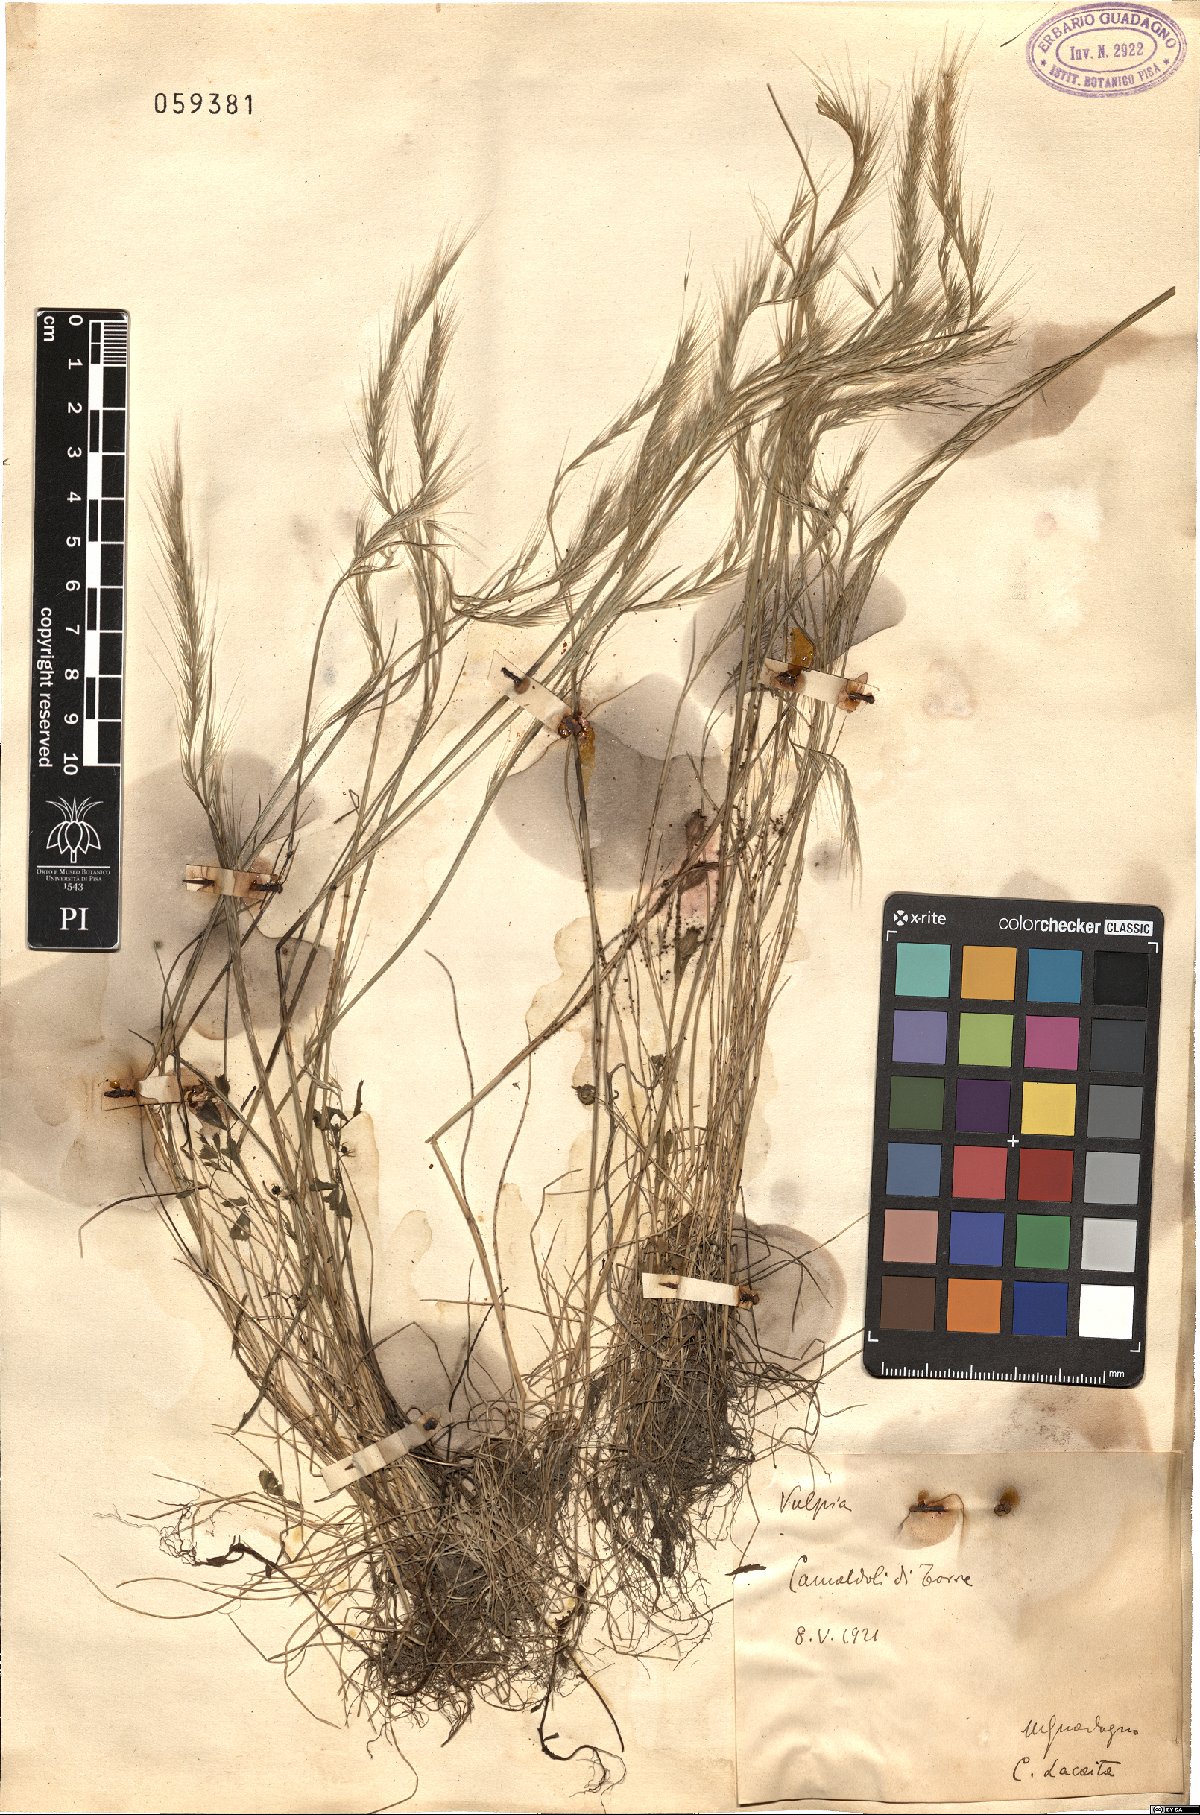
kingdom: Plantae
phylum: Tracheophyta
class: Liliopsida
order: Poales
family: Poaceae
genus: Festuca
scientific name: Festuca
